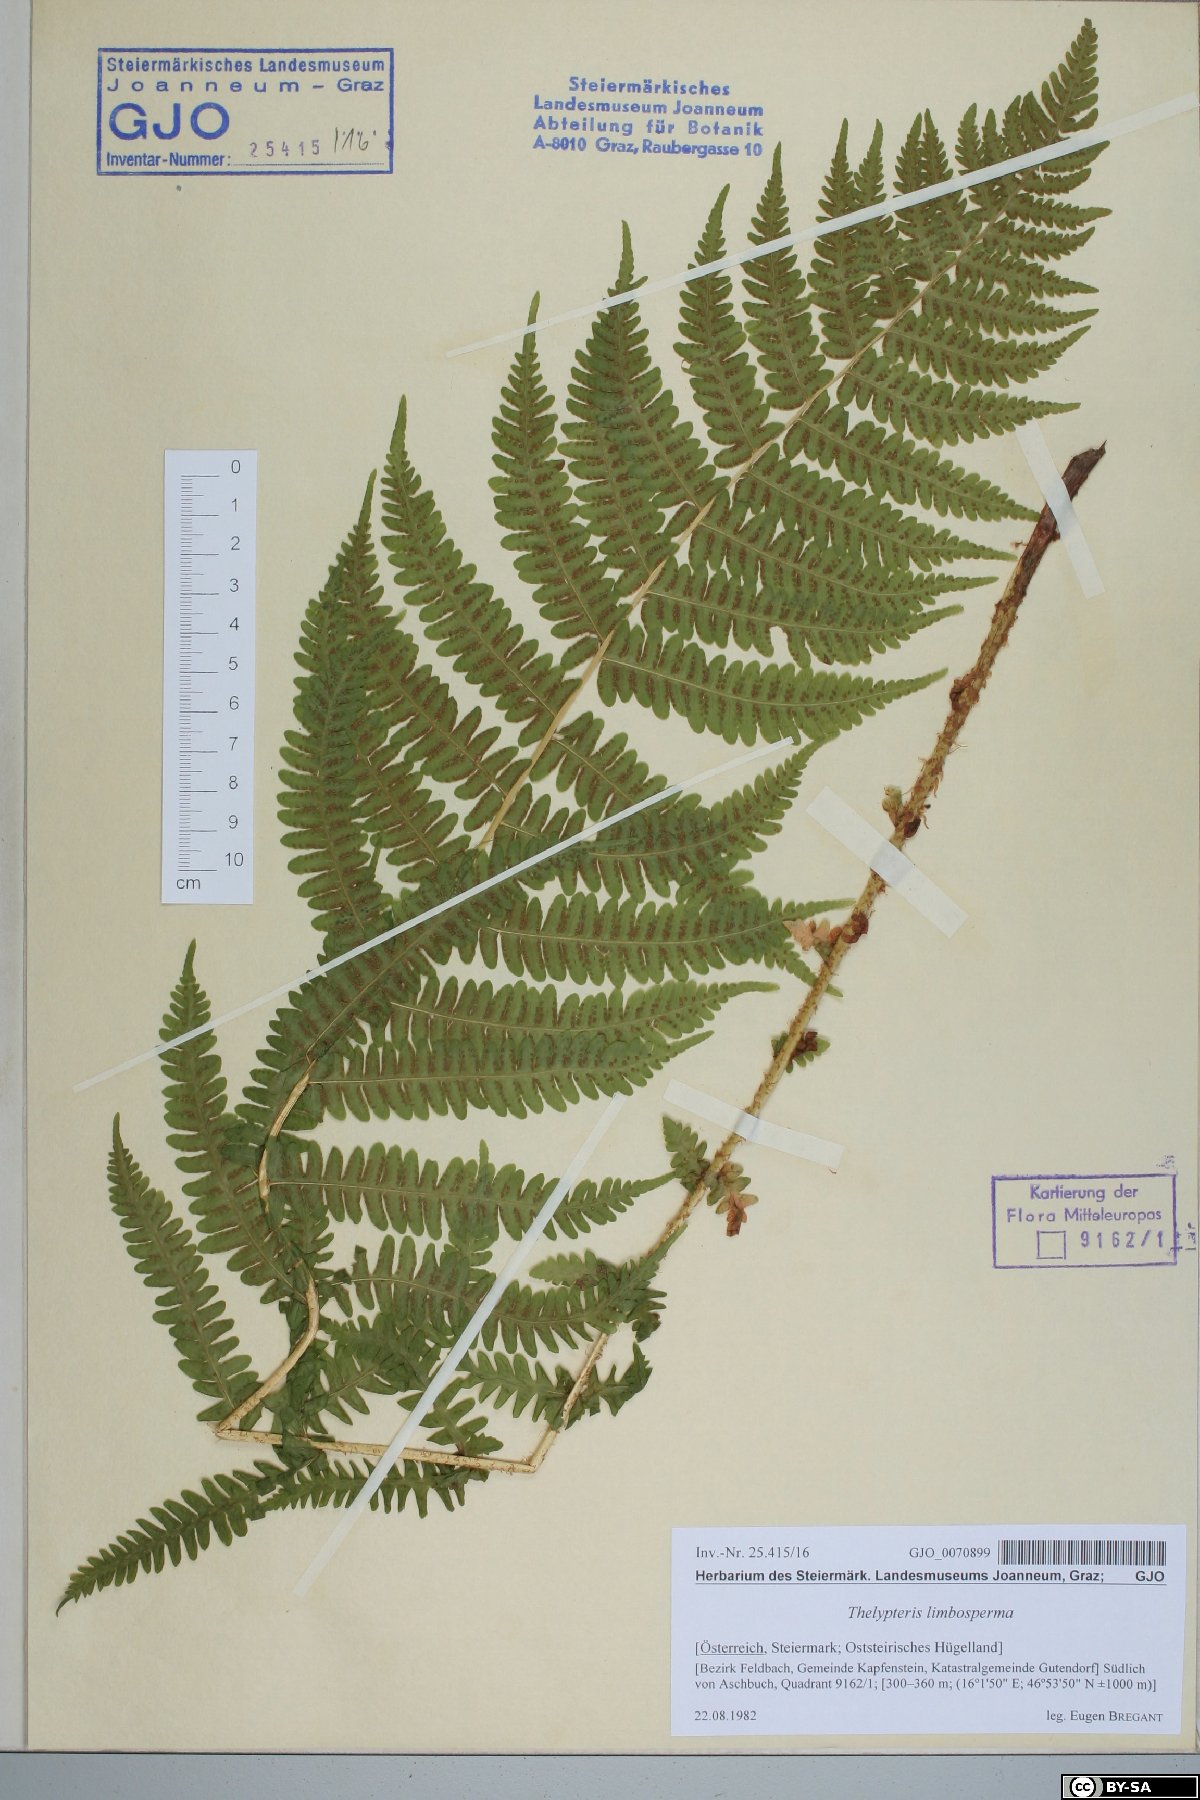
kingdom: Plantae
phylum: Tracheophyta
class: Polypodiopsida
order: Polypodiales
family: Thelypteridaceae
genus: Oreopteris
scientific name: Oreopteris limbosperma
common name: Lemon-scented fern
